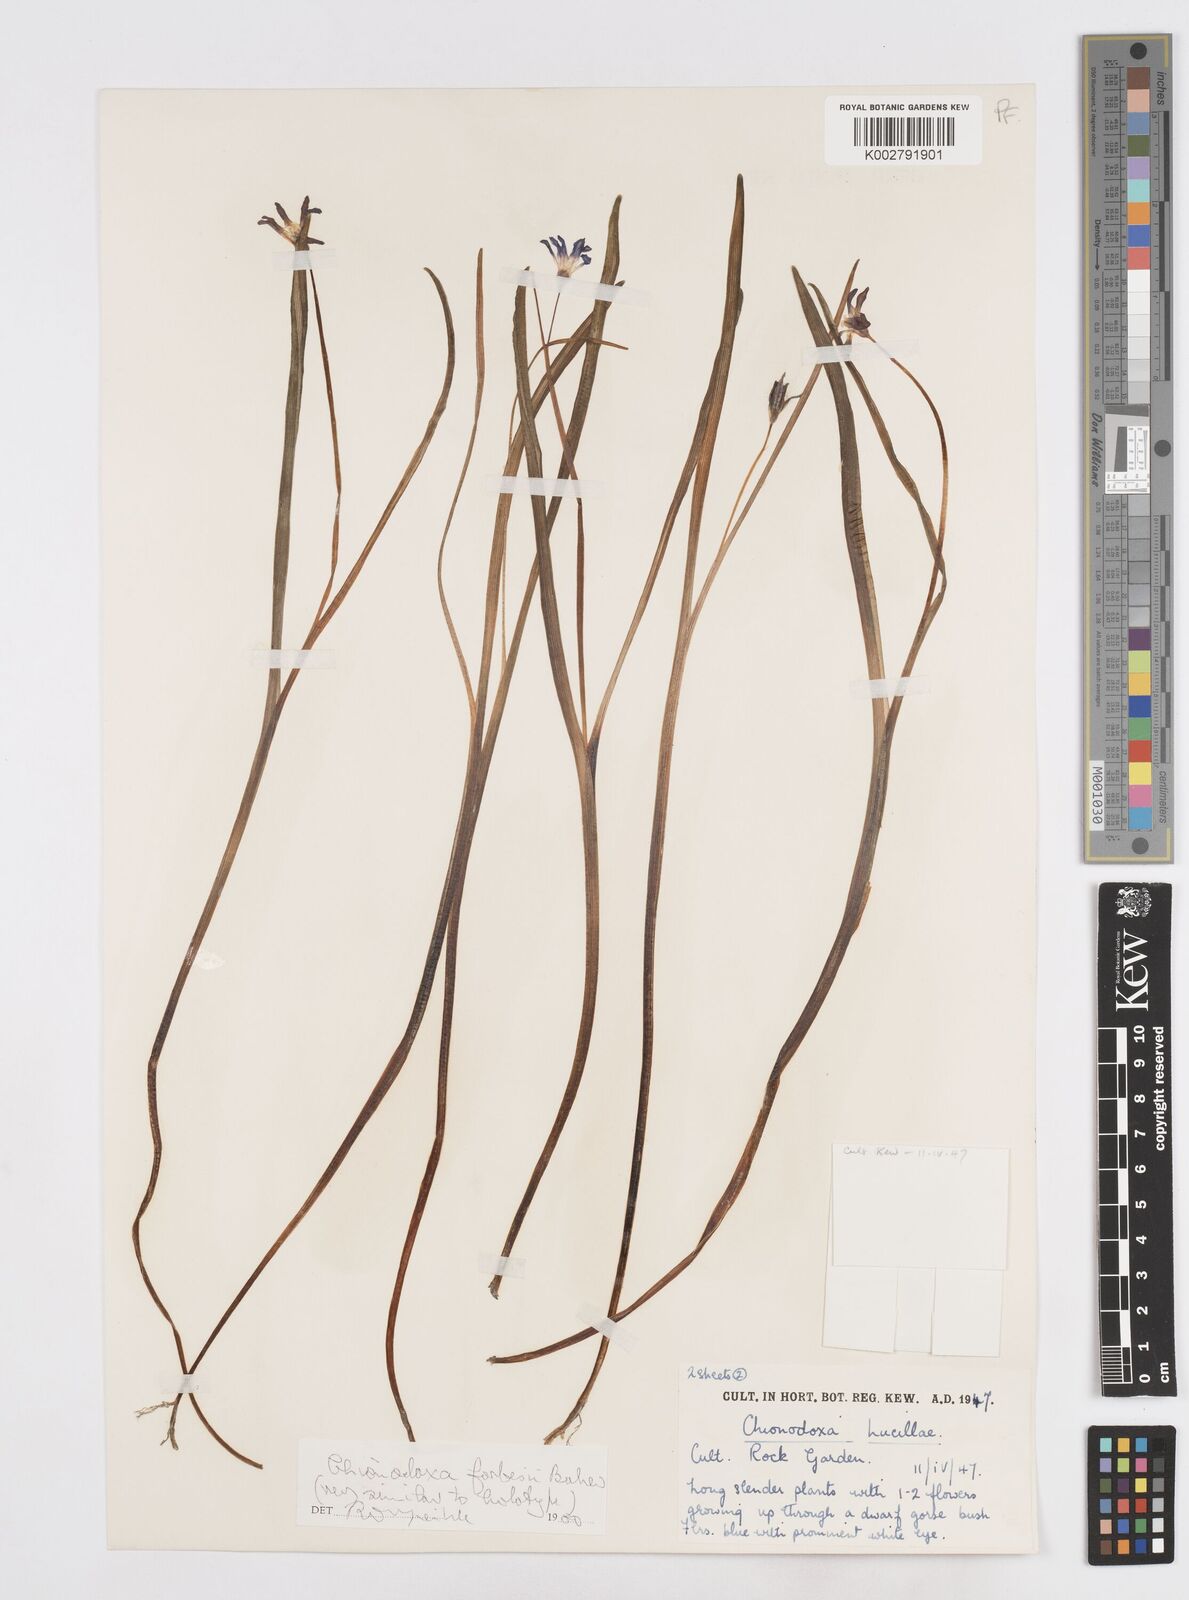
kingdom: Plantae
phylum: Tracheophyta
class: Liliopsida
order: Asparagales
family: Asparagaceae
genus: Scilla
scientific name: Scilla forbesii
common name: Glory-of-the-snow
